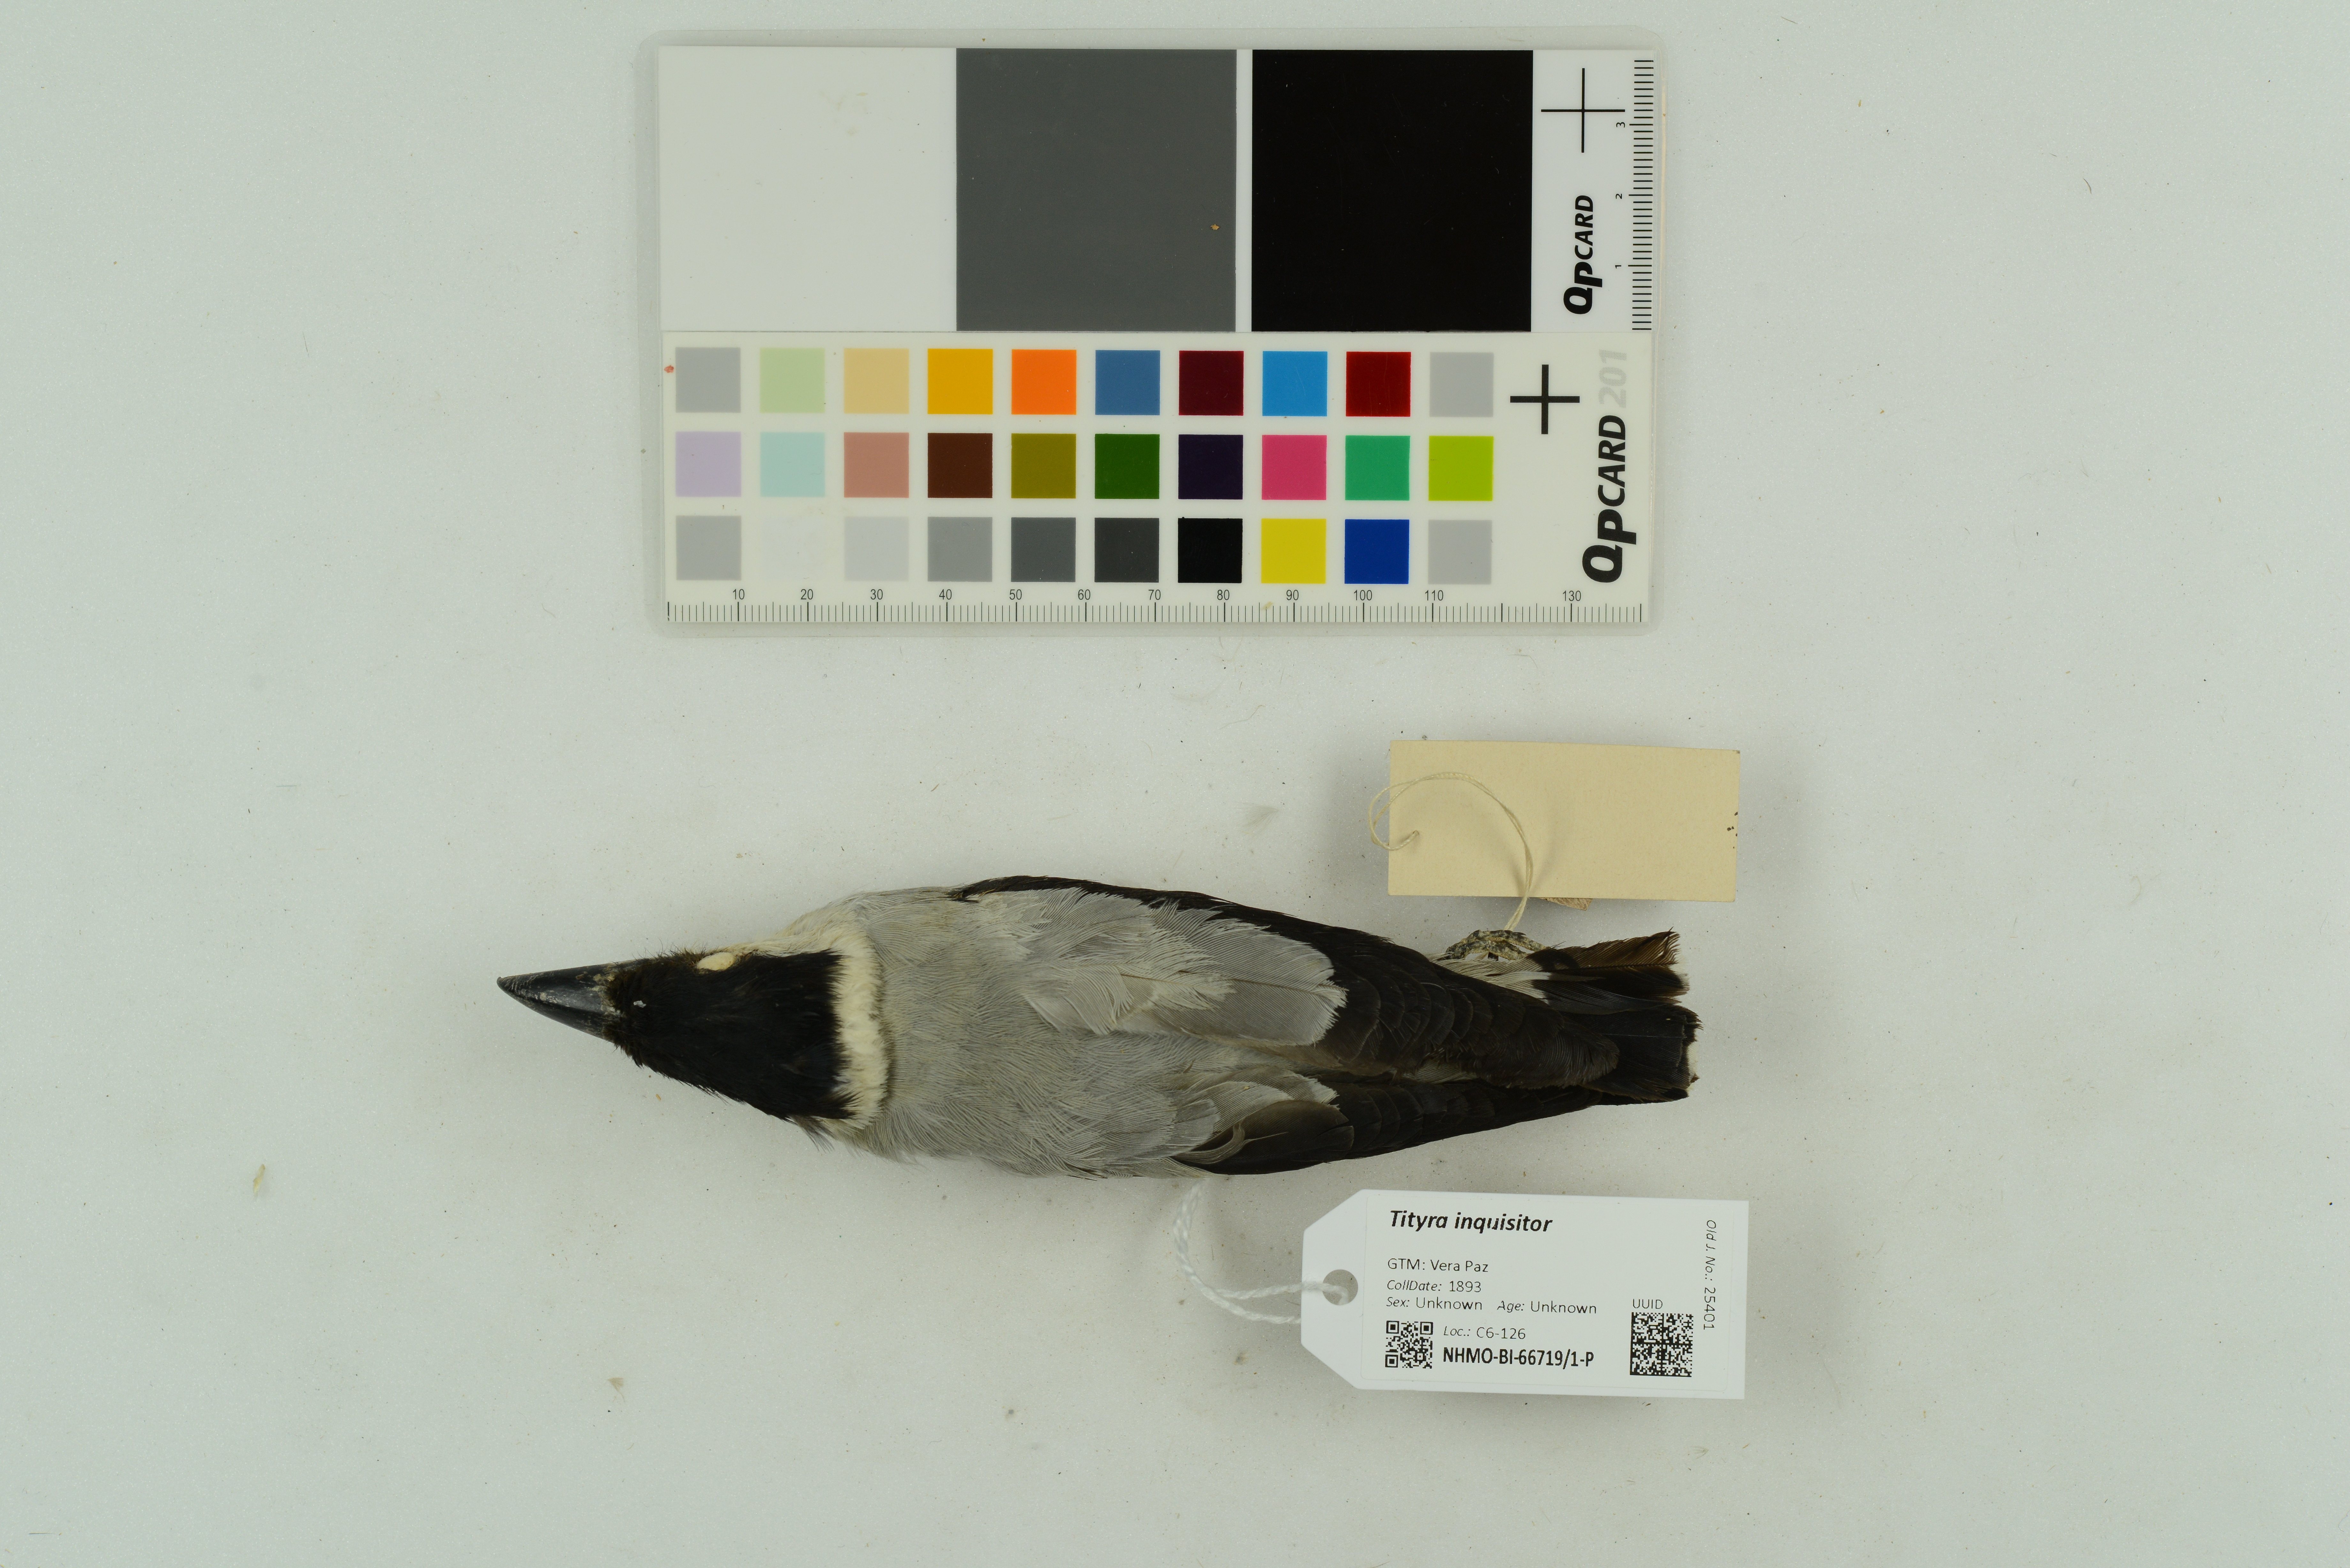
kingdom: Animalia
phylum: Chordata
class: Aves
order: Passeriformes
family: Cotingidae
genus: Tityra
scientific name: Tityra inquisitor
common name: Black-crowned tityra
